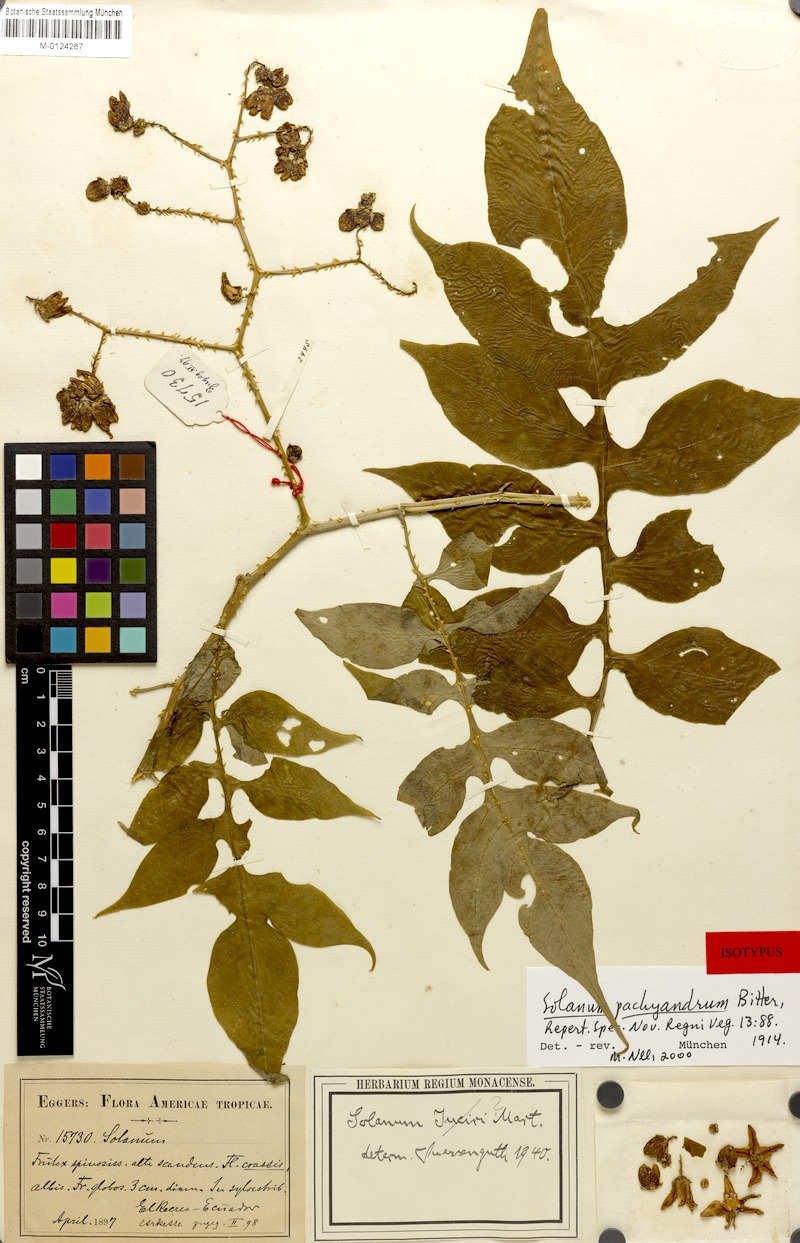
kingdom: Plantae
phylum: Tracheophyta
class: Magnoliopsida
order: Solanales
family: Solanaceae
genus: Solanum
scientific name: Solanum pachyandrum
